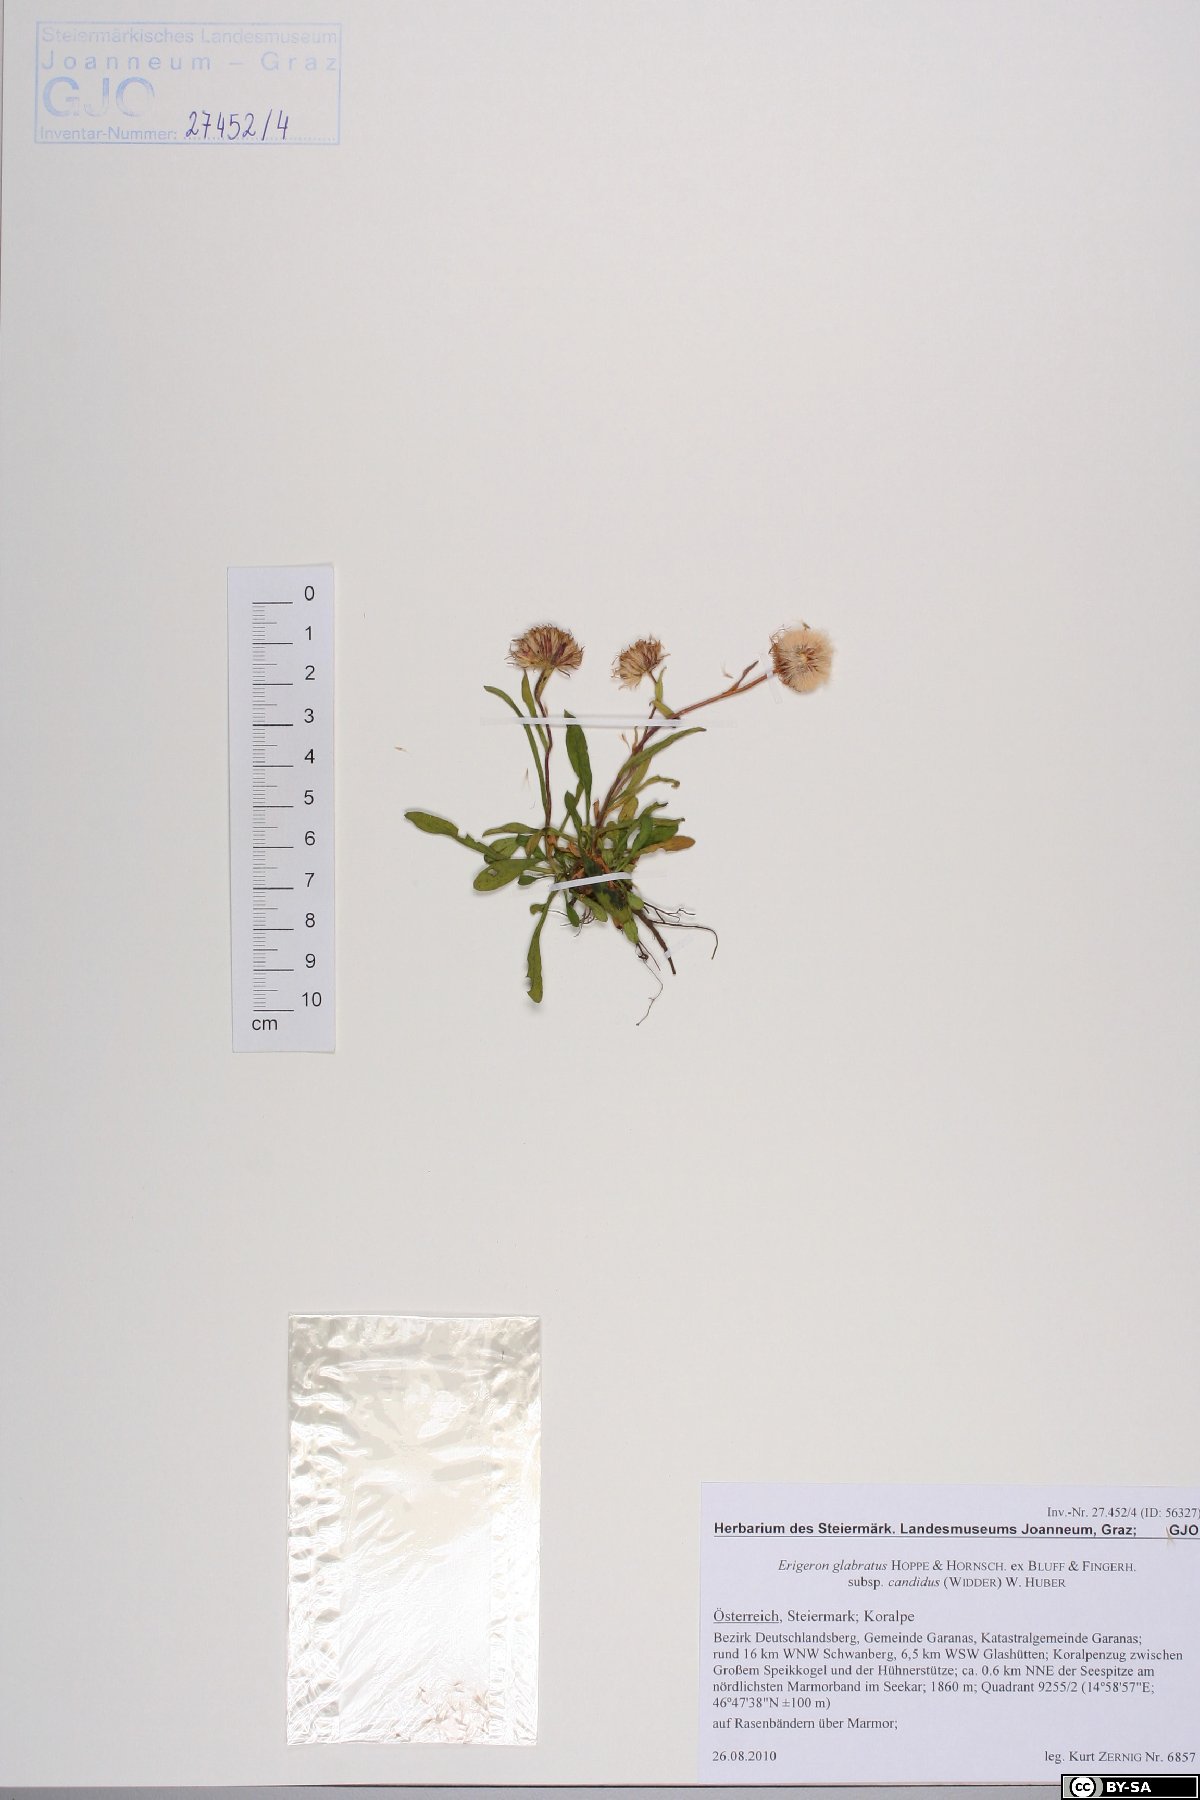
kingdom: Plantae
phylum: Tracheophyta
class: Magnoliopsida
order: Asterales
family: Asteraceae
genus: Erigeron
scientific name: Erigeron glabratus
